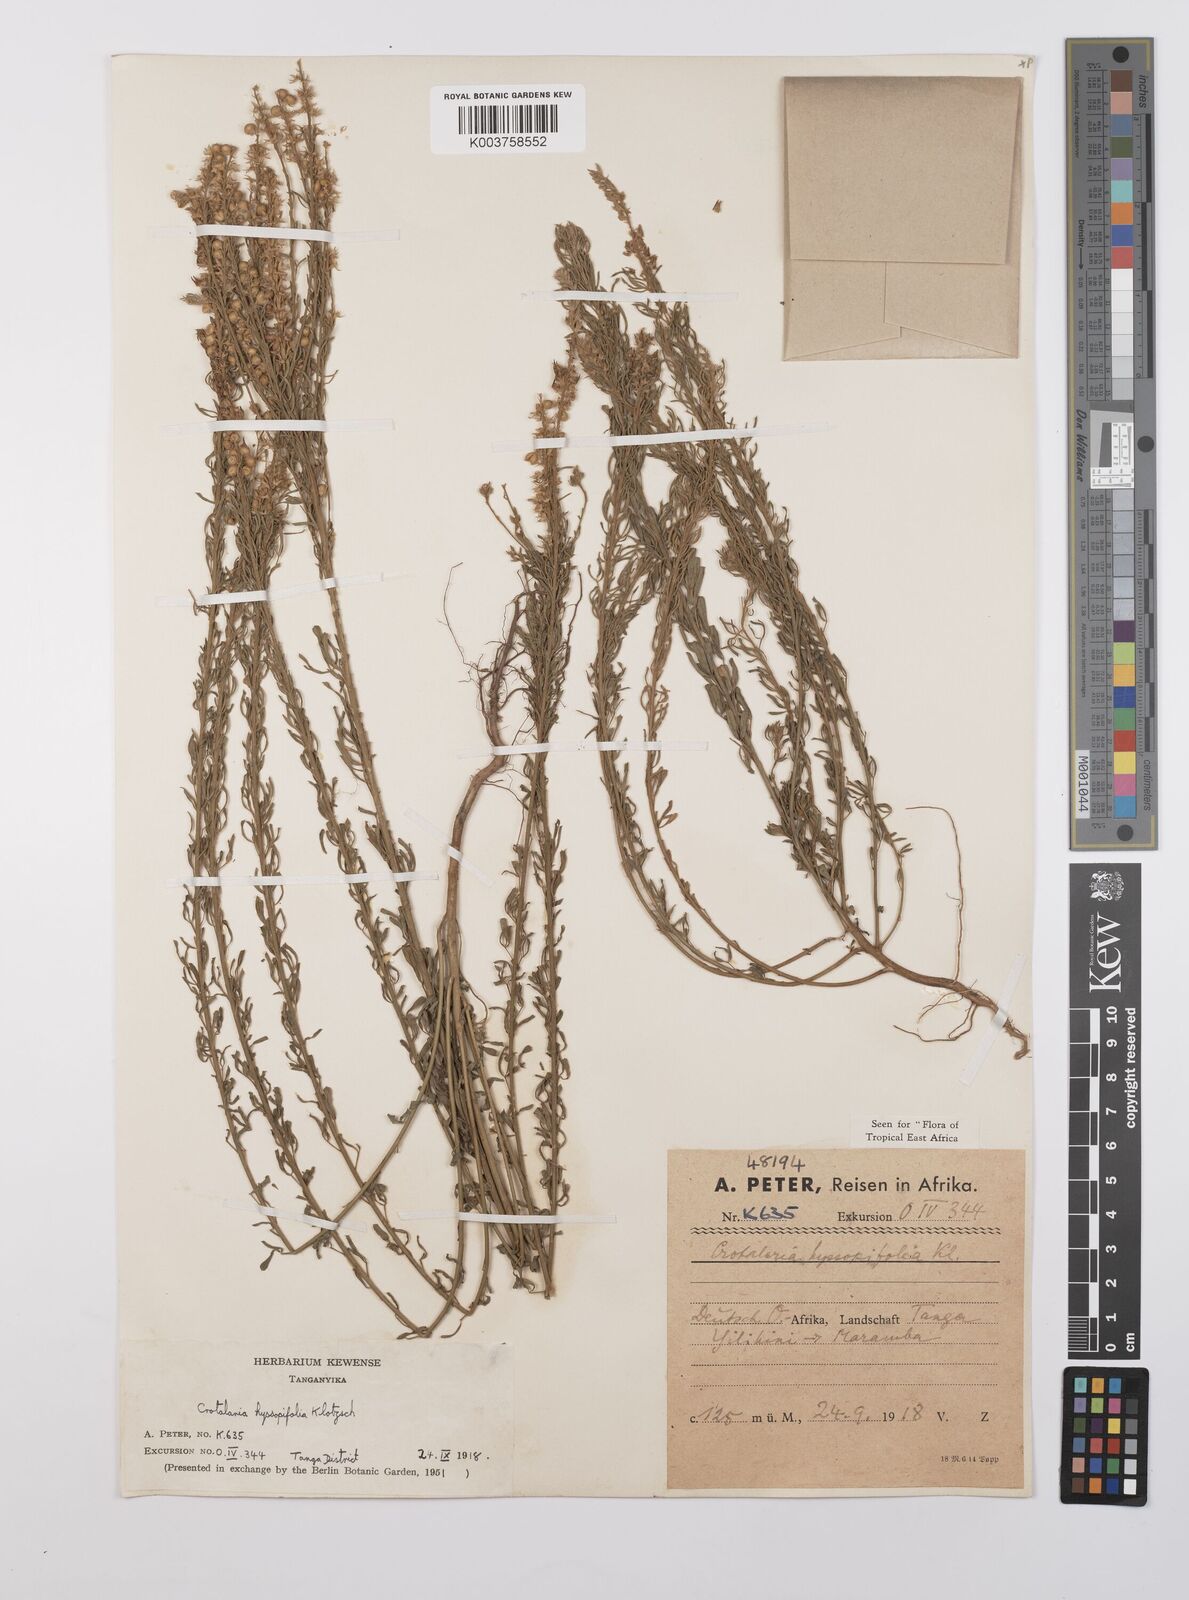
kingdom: Plantae
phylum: Tracheophyta
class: Magnoliopsida
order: Fabales
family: Fabaceae
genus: Crotalaria
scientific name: Crotalaria hyssopifolia
